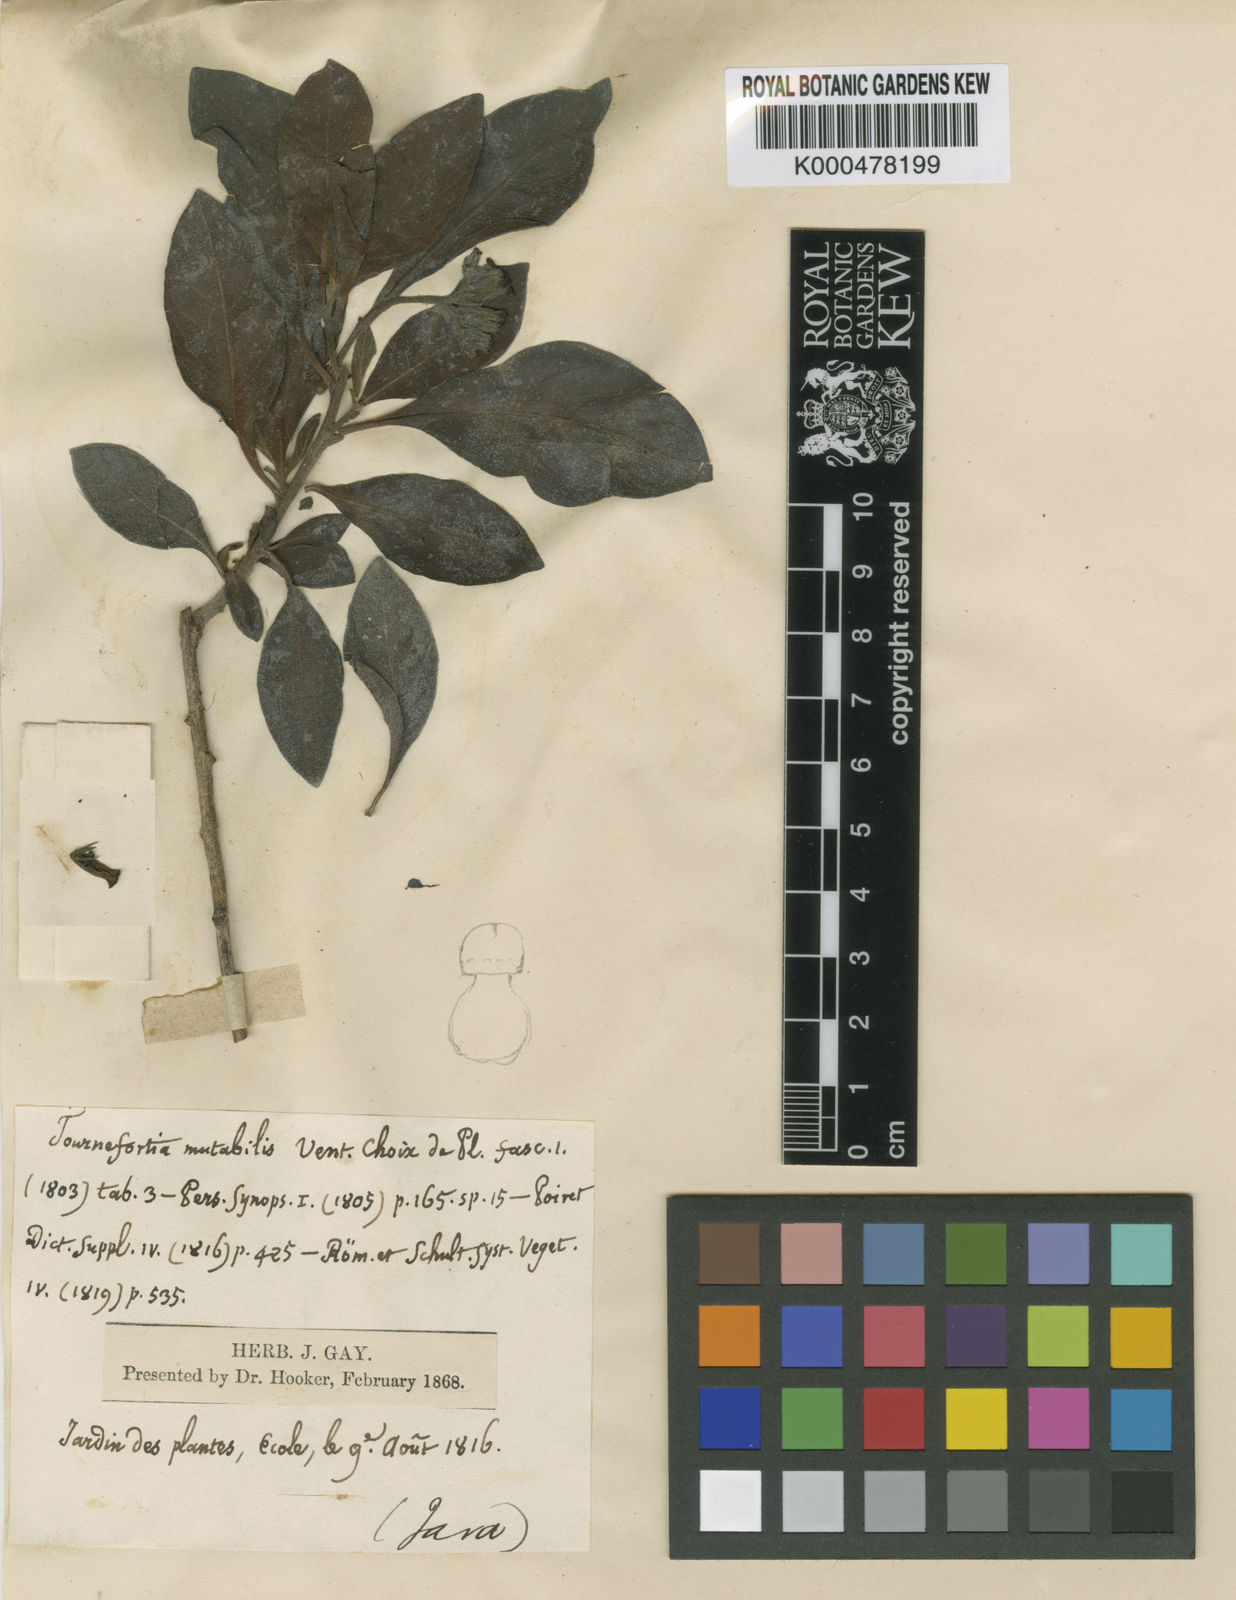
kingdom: Plantae
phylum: Tracheophyta
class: Magnoliopsida
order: Boraginales
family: Heliotropiaceae
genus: Tournefortia
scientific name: Tournefortia mutabilis
